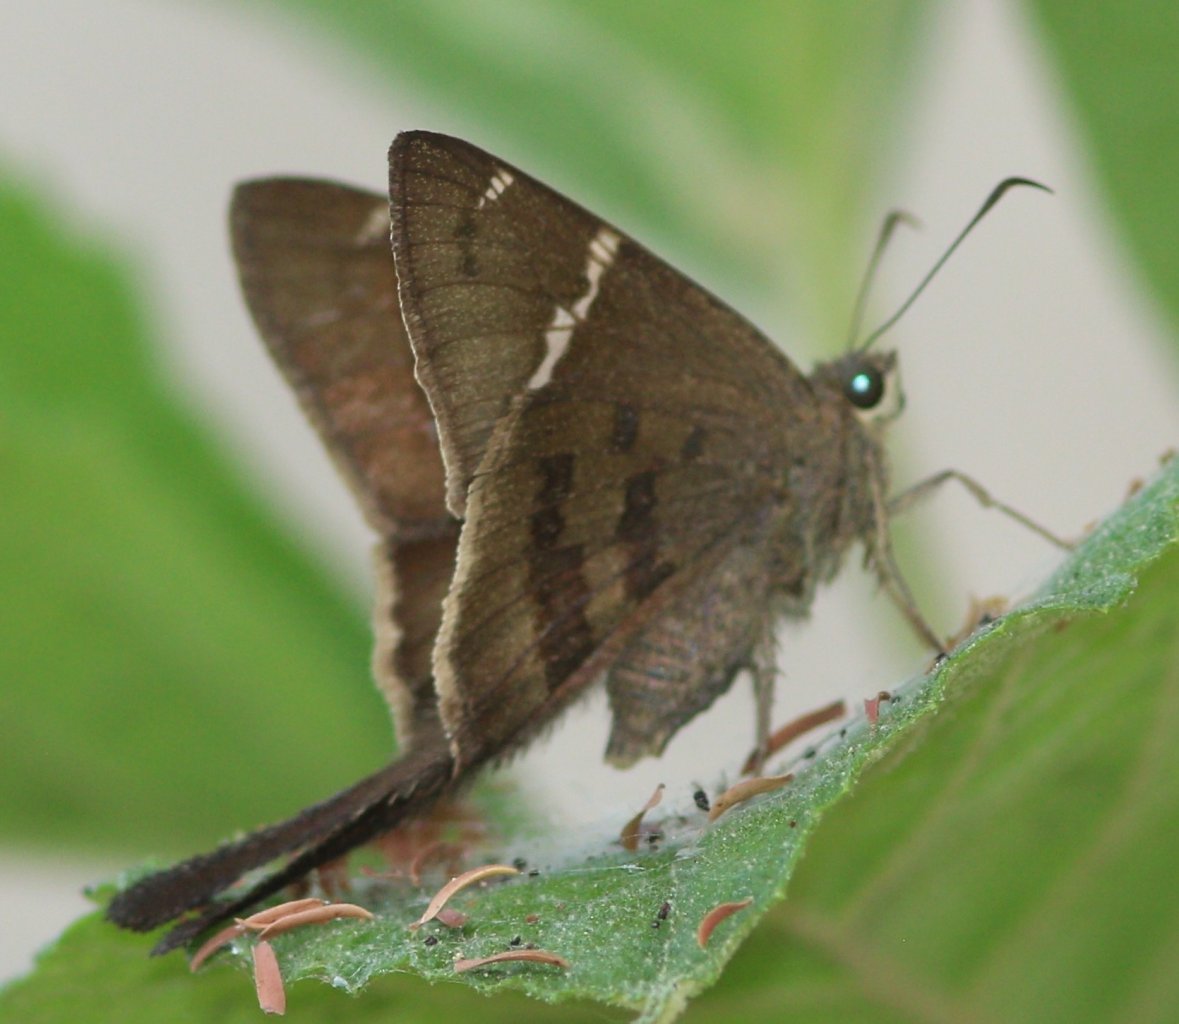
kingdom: Animalia
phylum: Arthropoda
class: Insecta
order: Lepidoptera
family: Hesperiidae
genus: Urbanus
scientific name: Urbanus procne
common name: Brown Longtail
